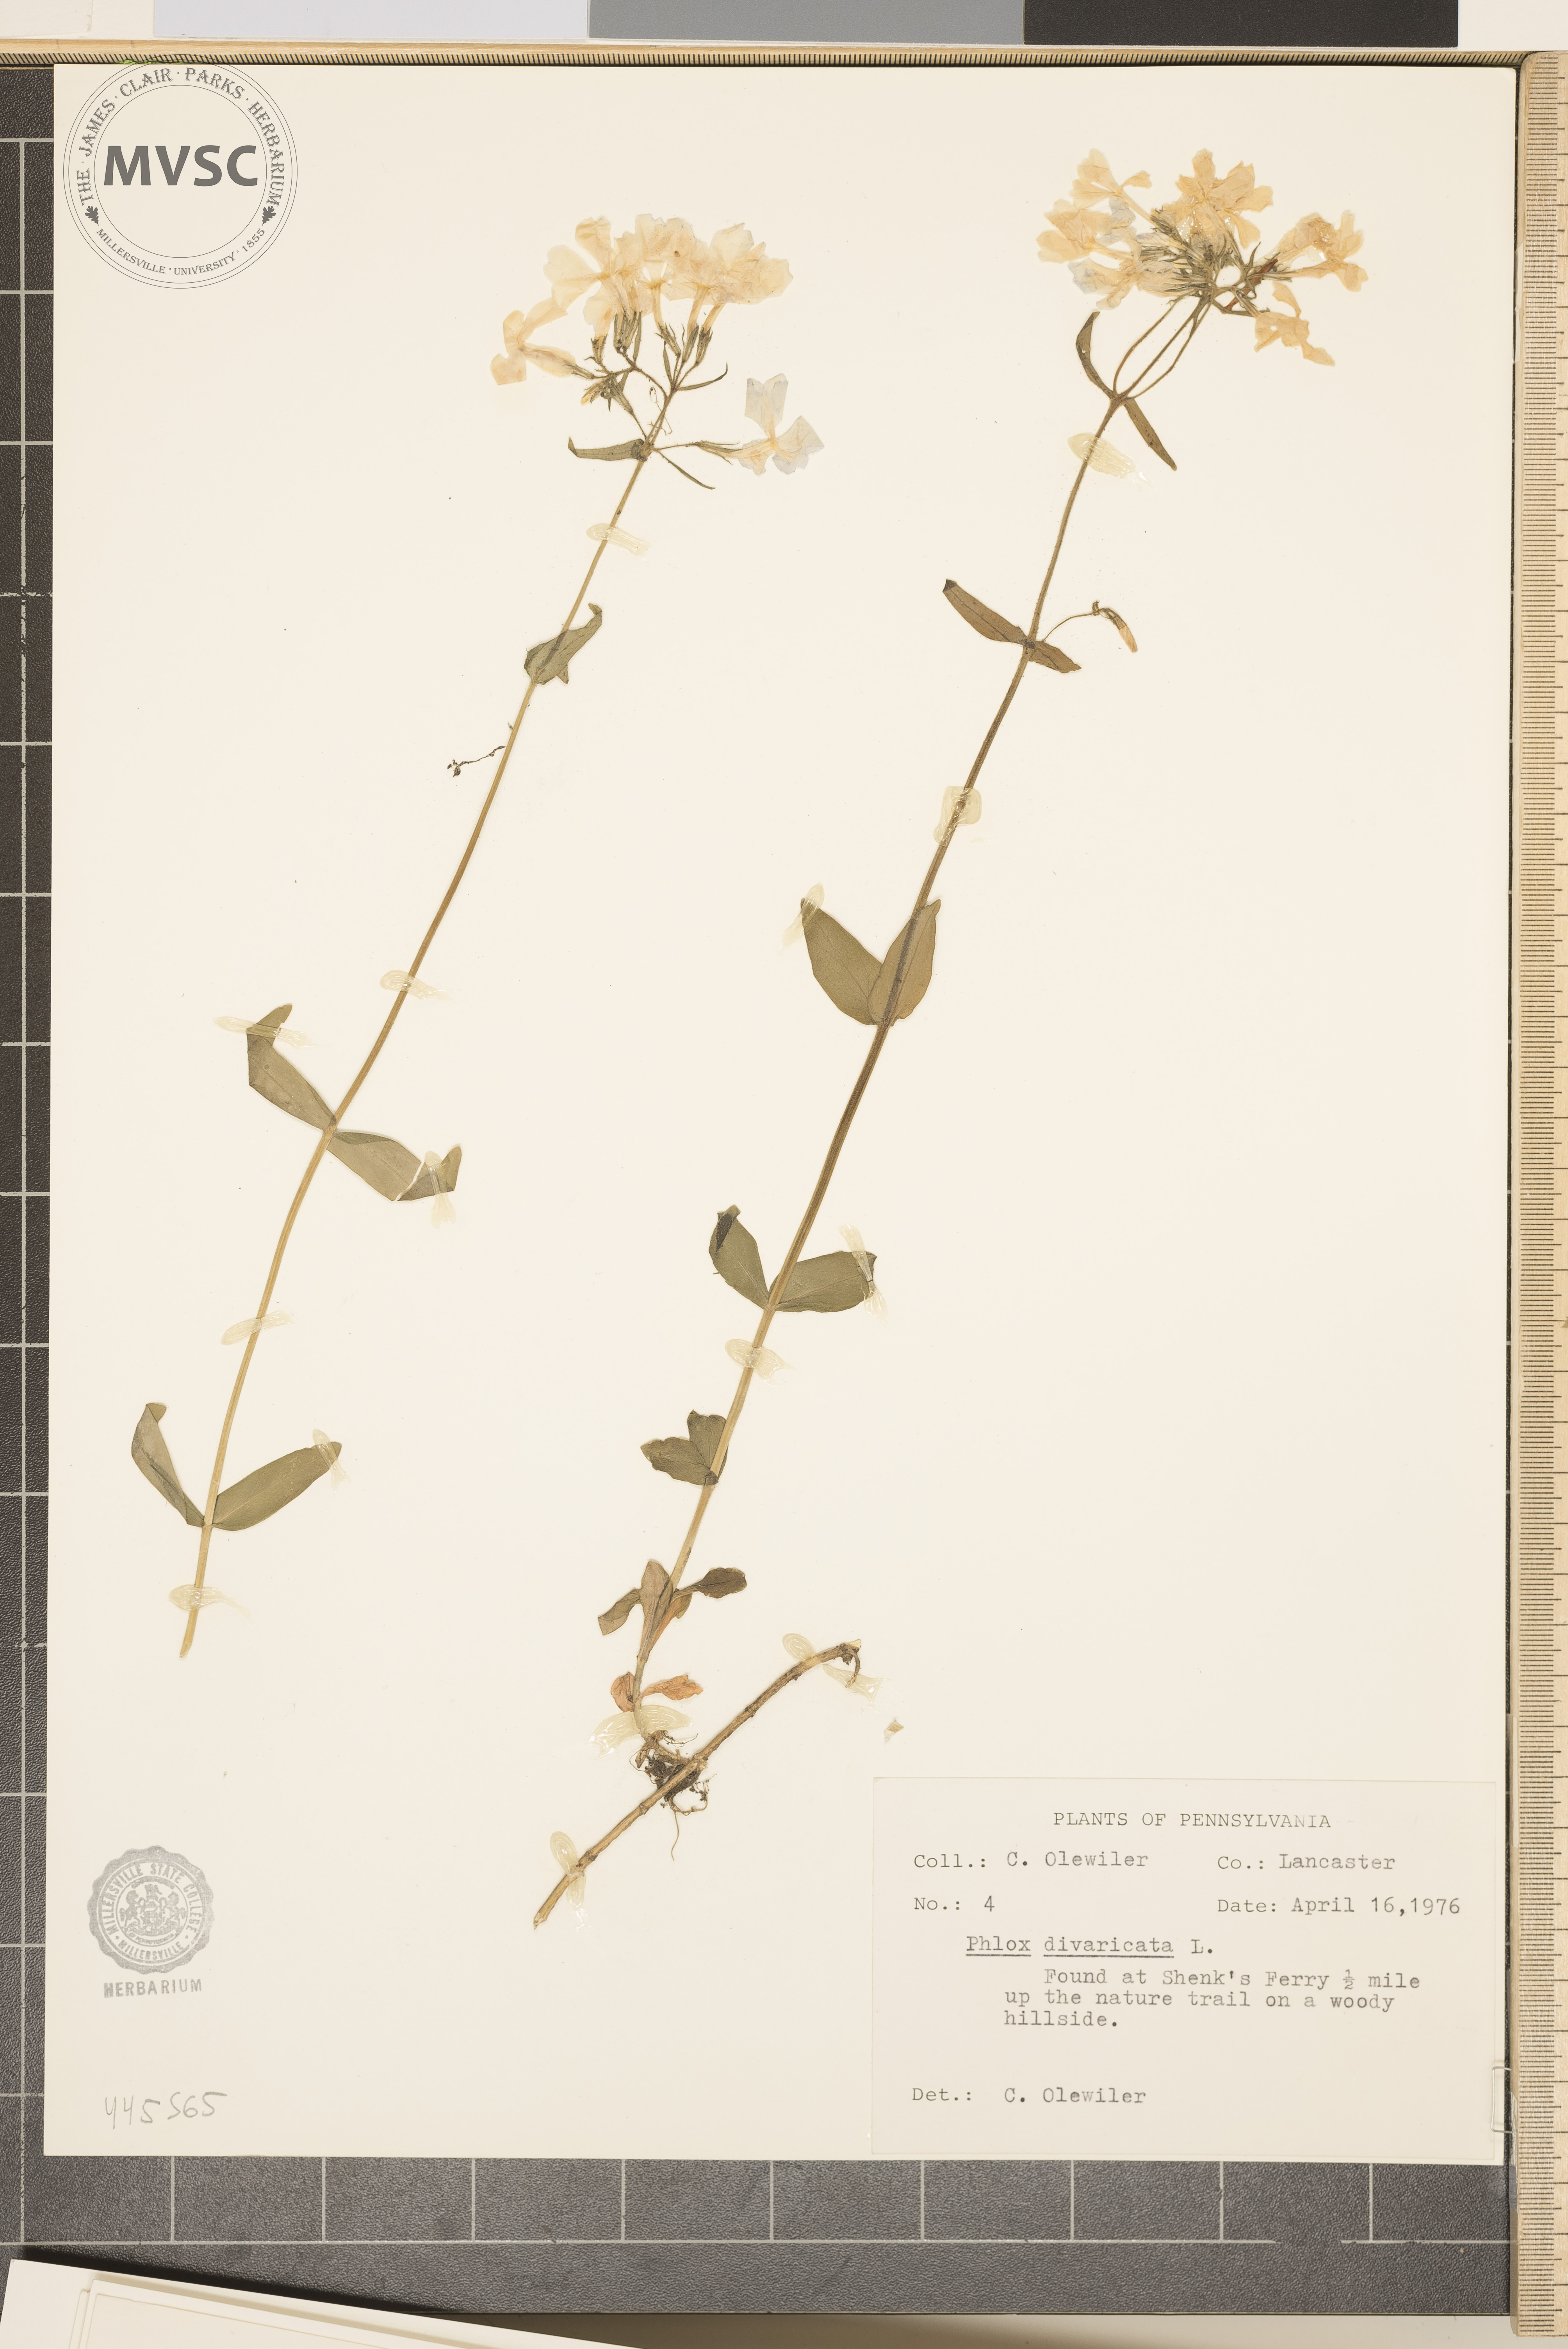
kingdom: Plantae
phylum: Tracheophyta
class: Magnoliopsida
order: Ericales
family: Polemoniaceae
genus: Phlox
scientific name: Phlox divaricata
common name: Blue phlox
